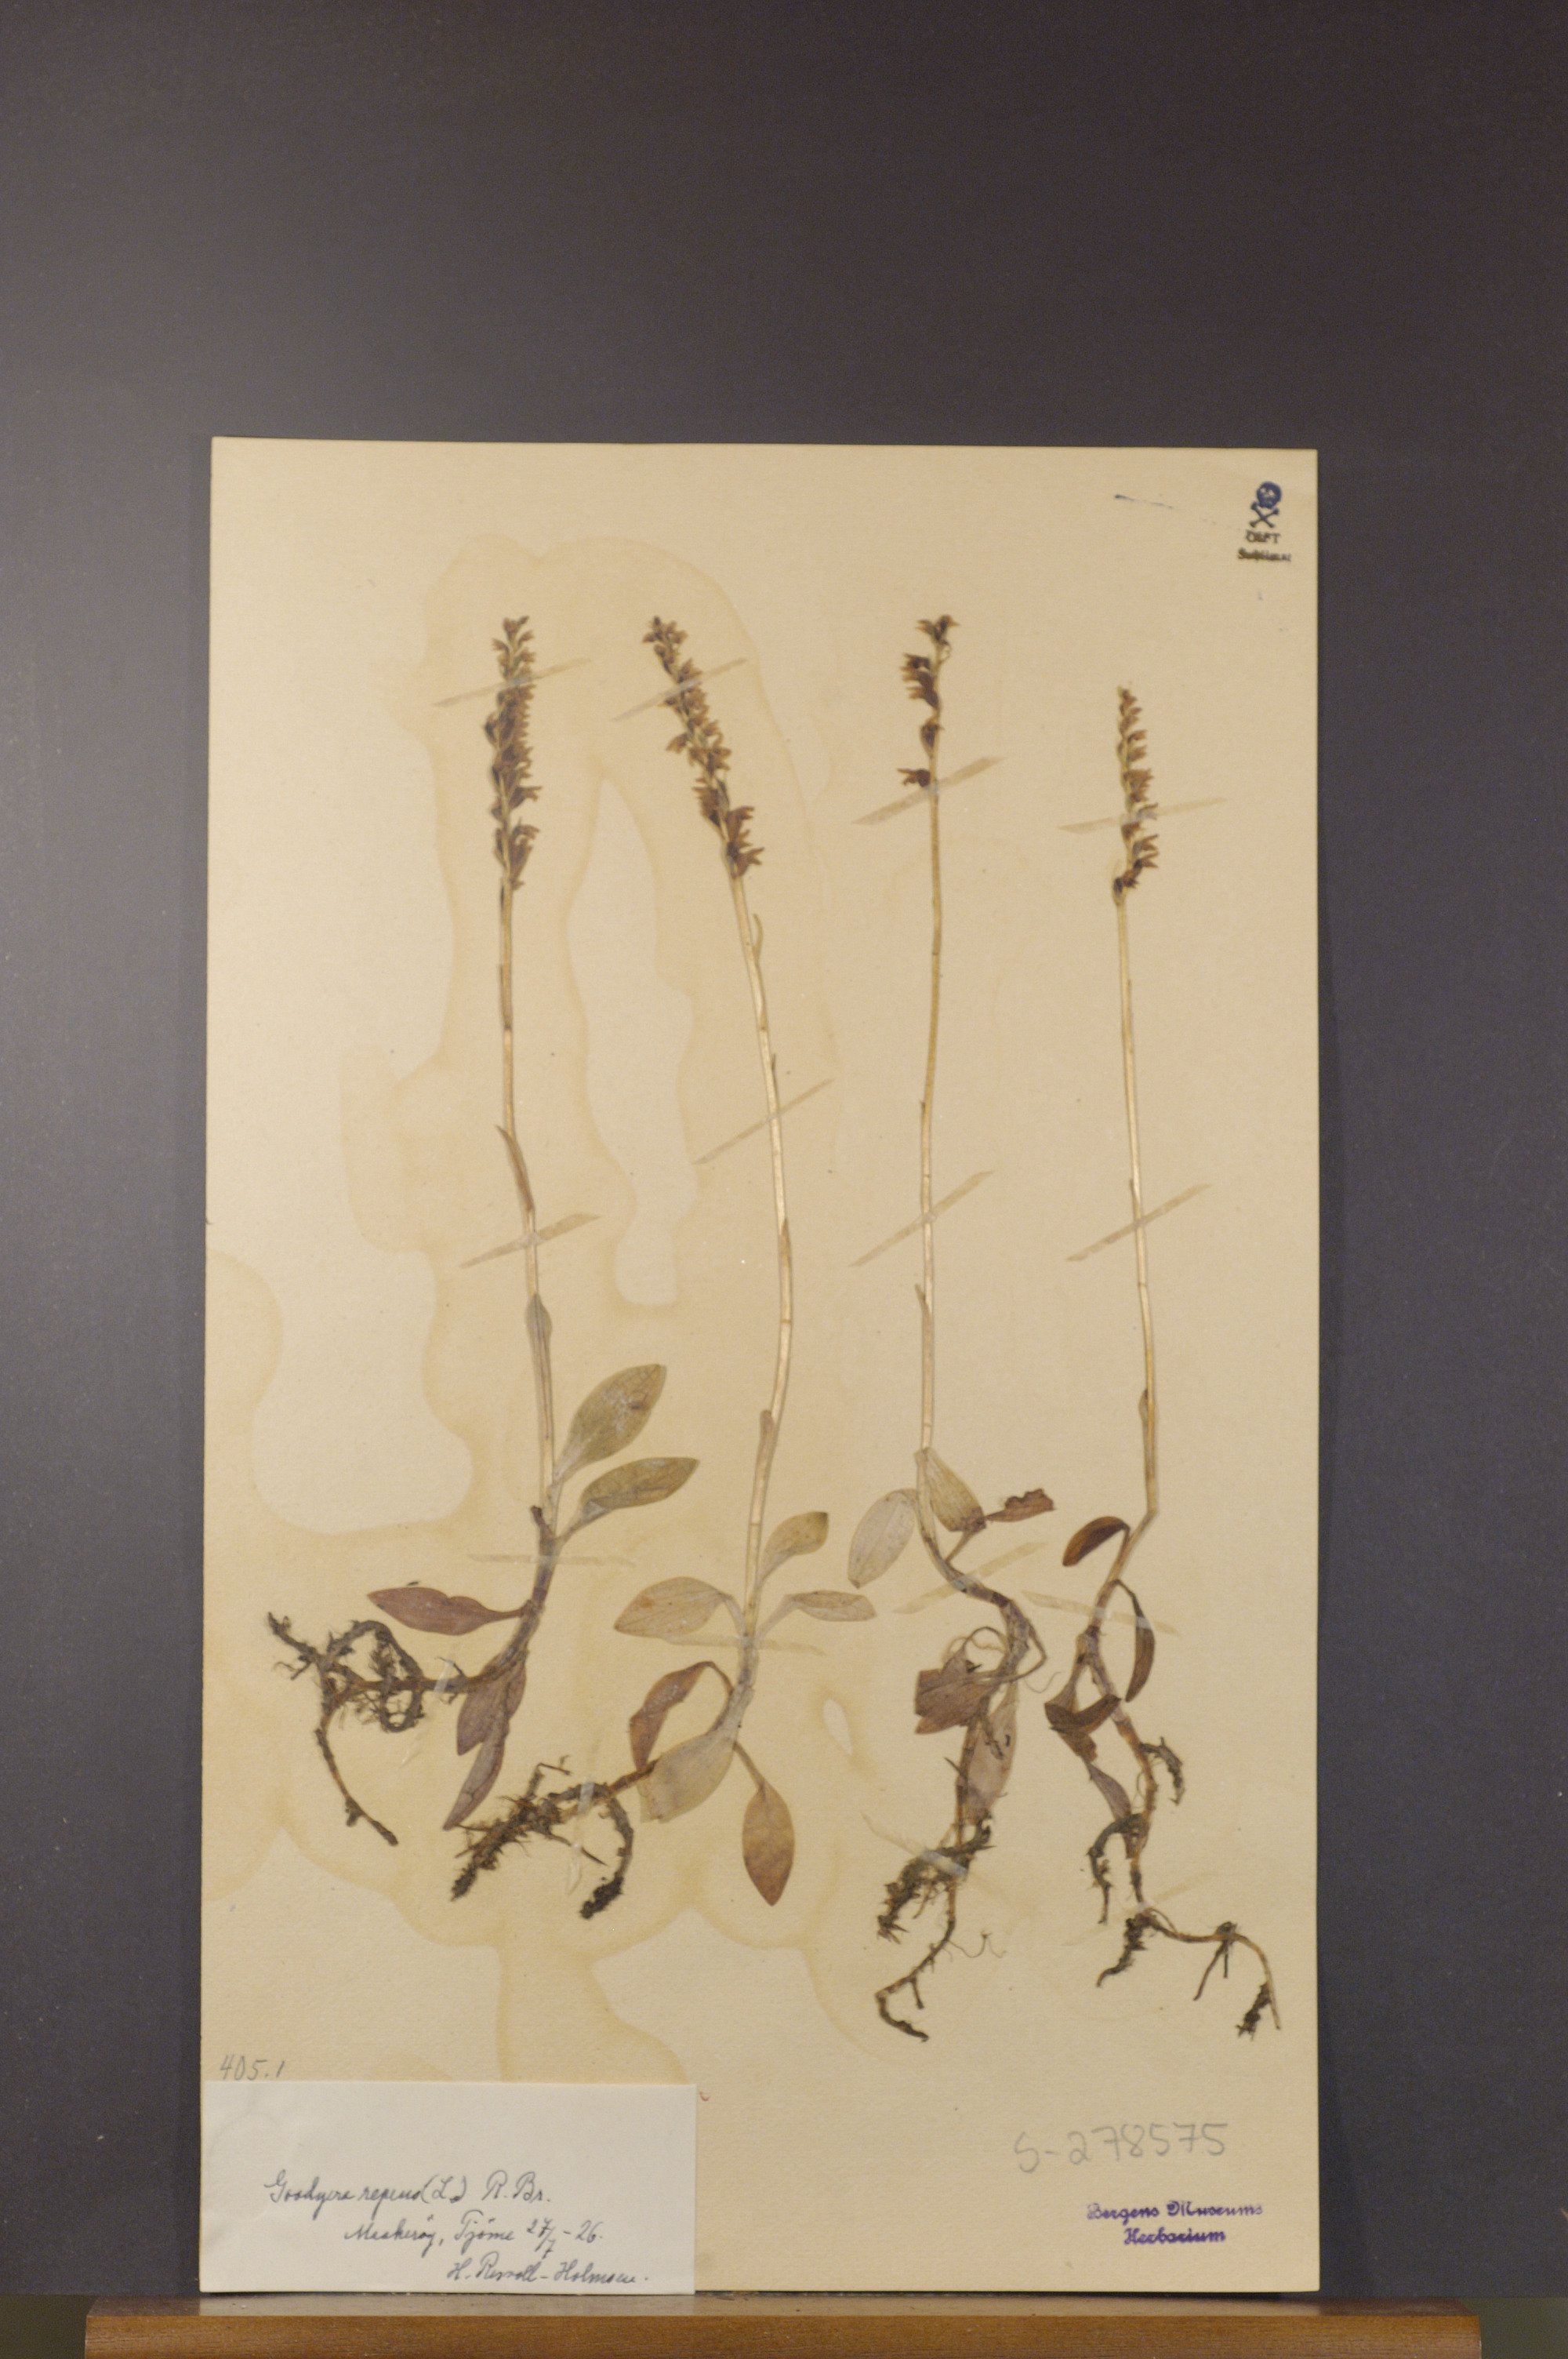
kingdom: Plantae
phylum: Tracheophyta
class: Liliopsida
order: Asparagales
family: Orchidaceae
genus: Goodyera
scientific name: Goodyera repens
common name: Creeping lady's-tresses
